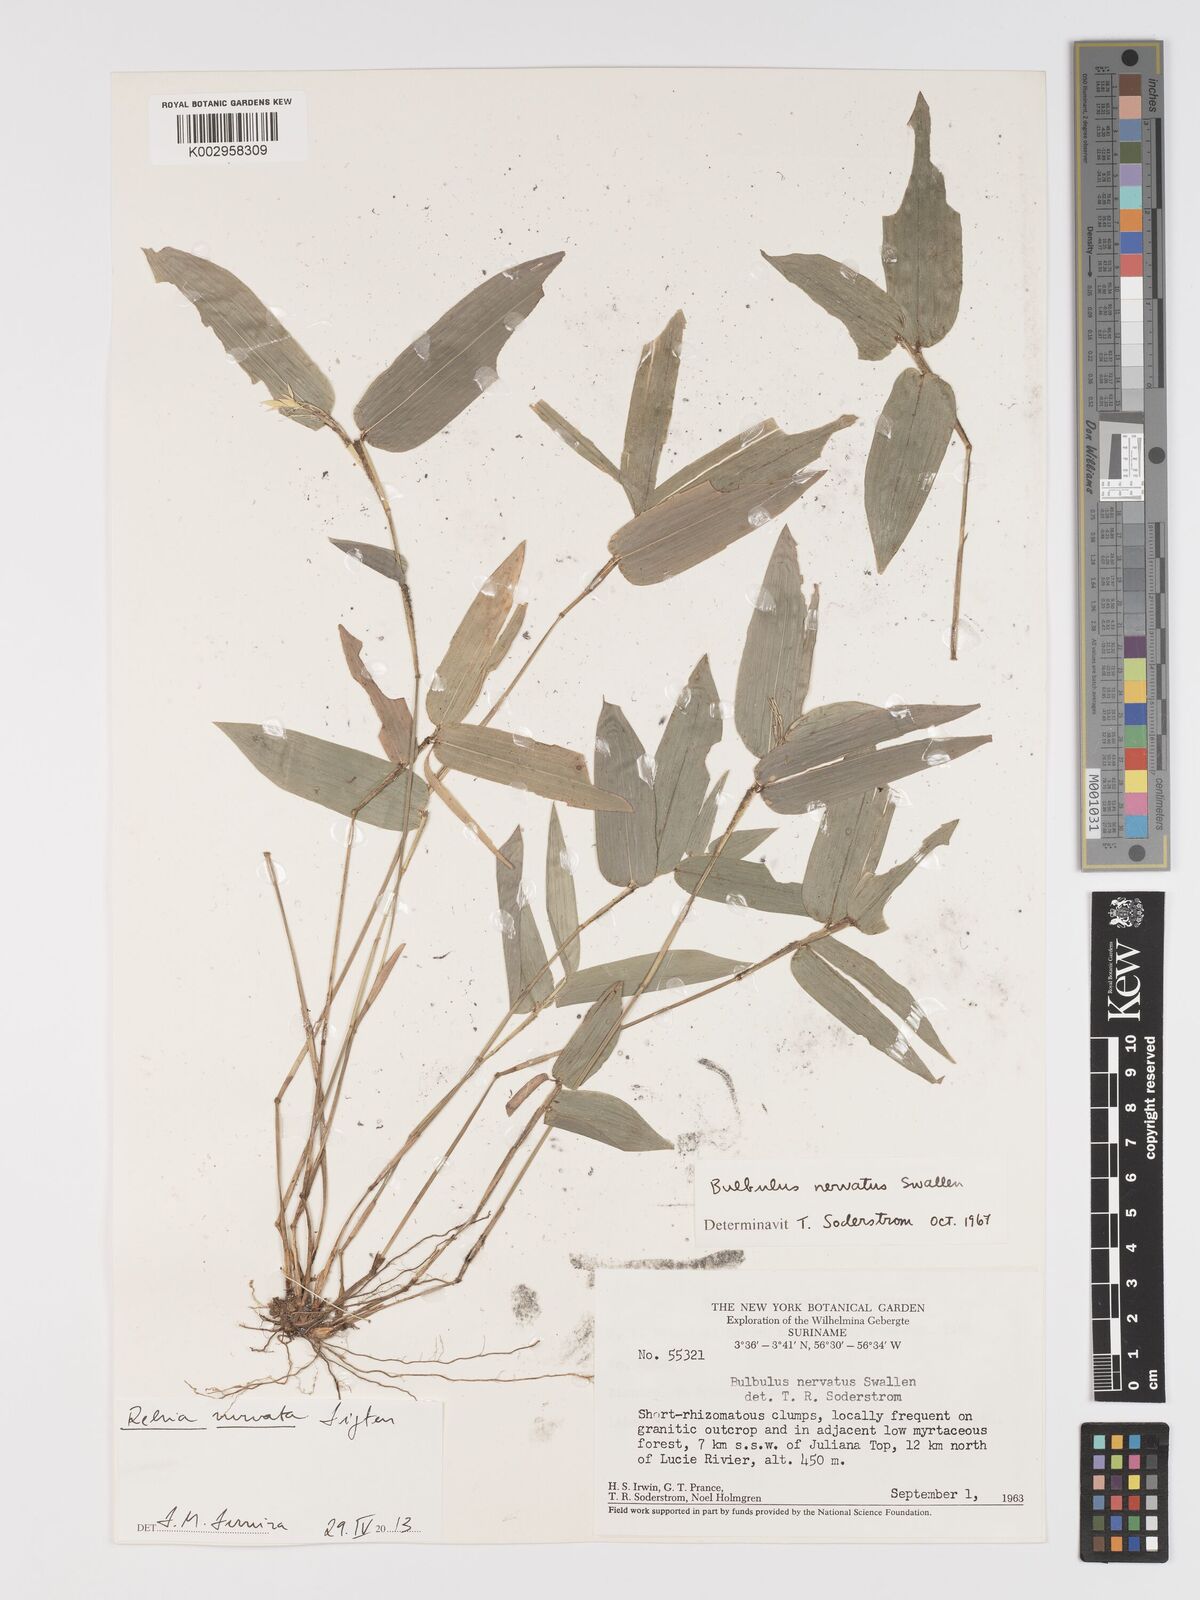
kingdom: Plantae
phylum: Tracheophyta
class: Liliopsida
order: Poales
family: Poaceae
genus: Rehia
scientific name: Rehia nervata
